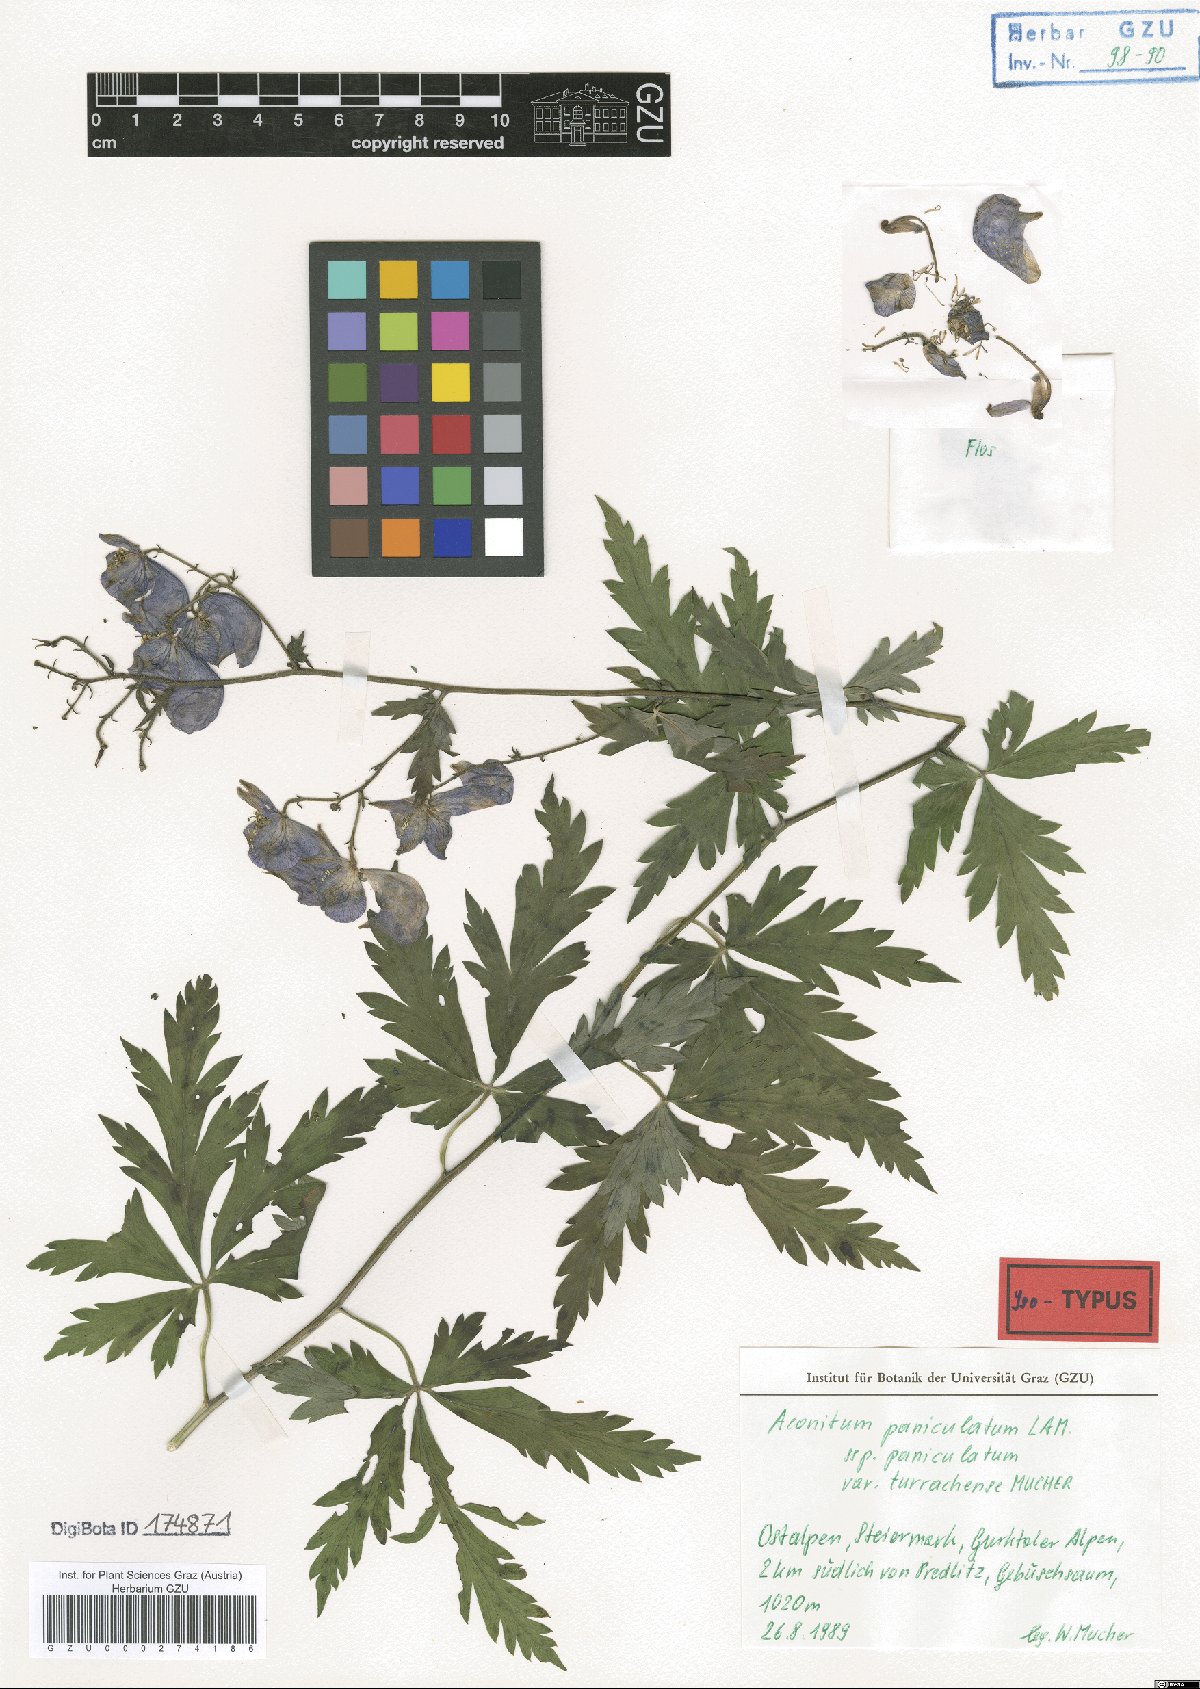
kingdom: Plantae
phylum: Tracheophyta
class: Magnoliopsida
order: Ranunculales
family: Ranunculaceae
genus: Aconitum
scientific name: Aconitum degenii
